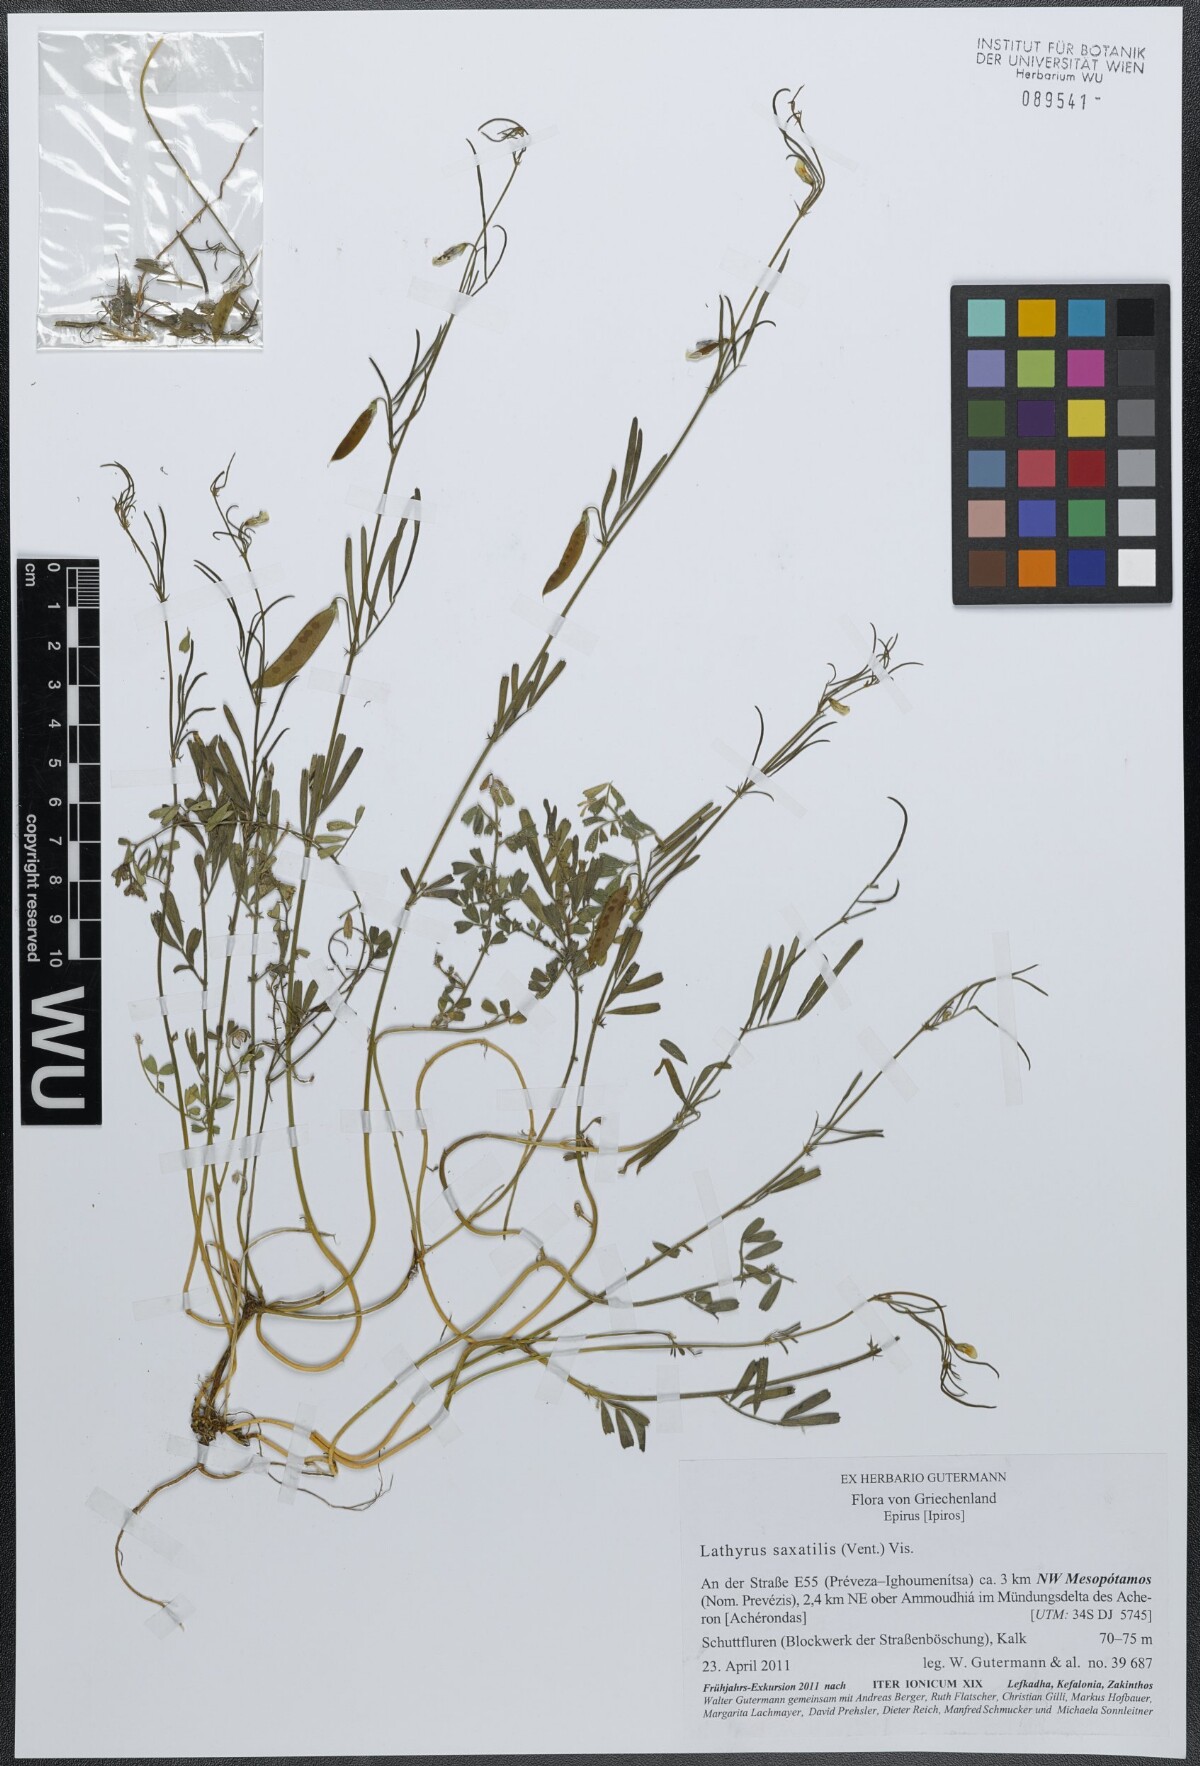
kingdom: Plantae
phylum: Tracheophyta
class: Magnoliopsida
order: Fabales
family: Fabaceae
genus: Lathyrus
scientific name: Lathyrus saxatilis
